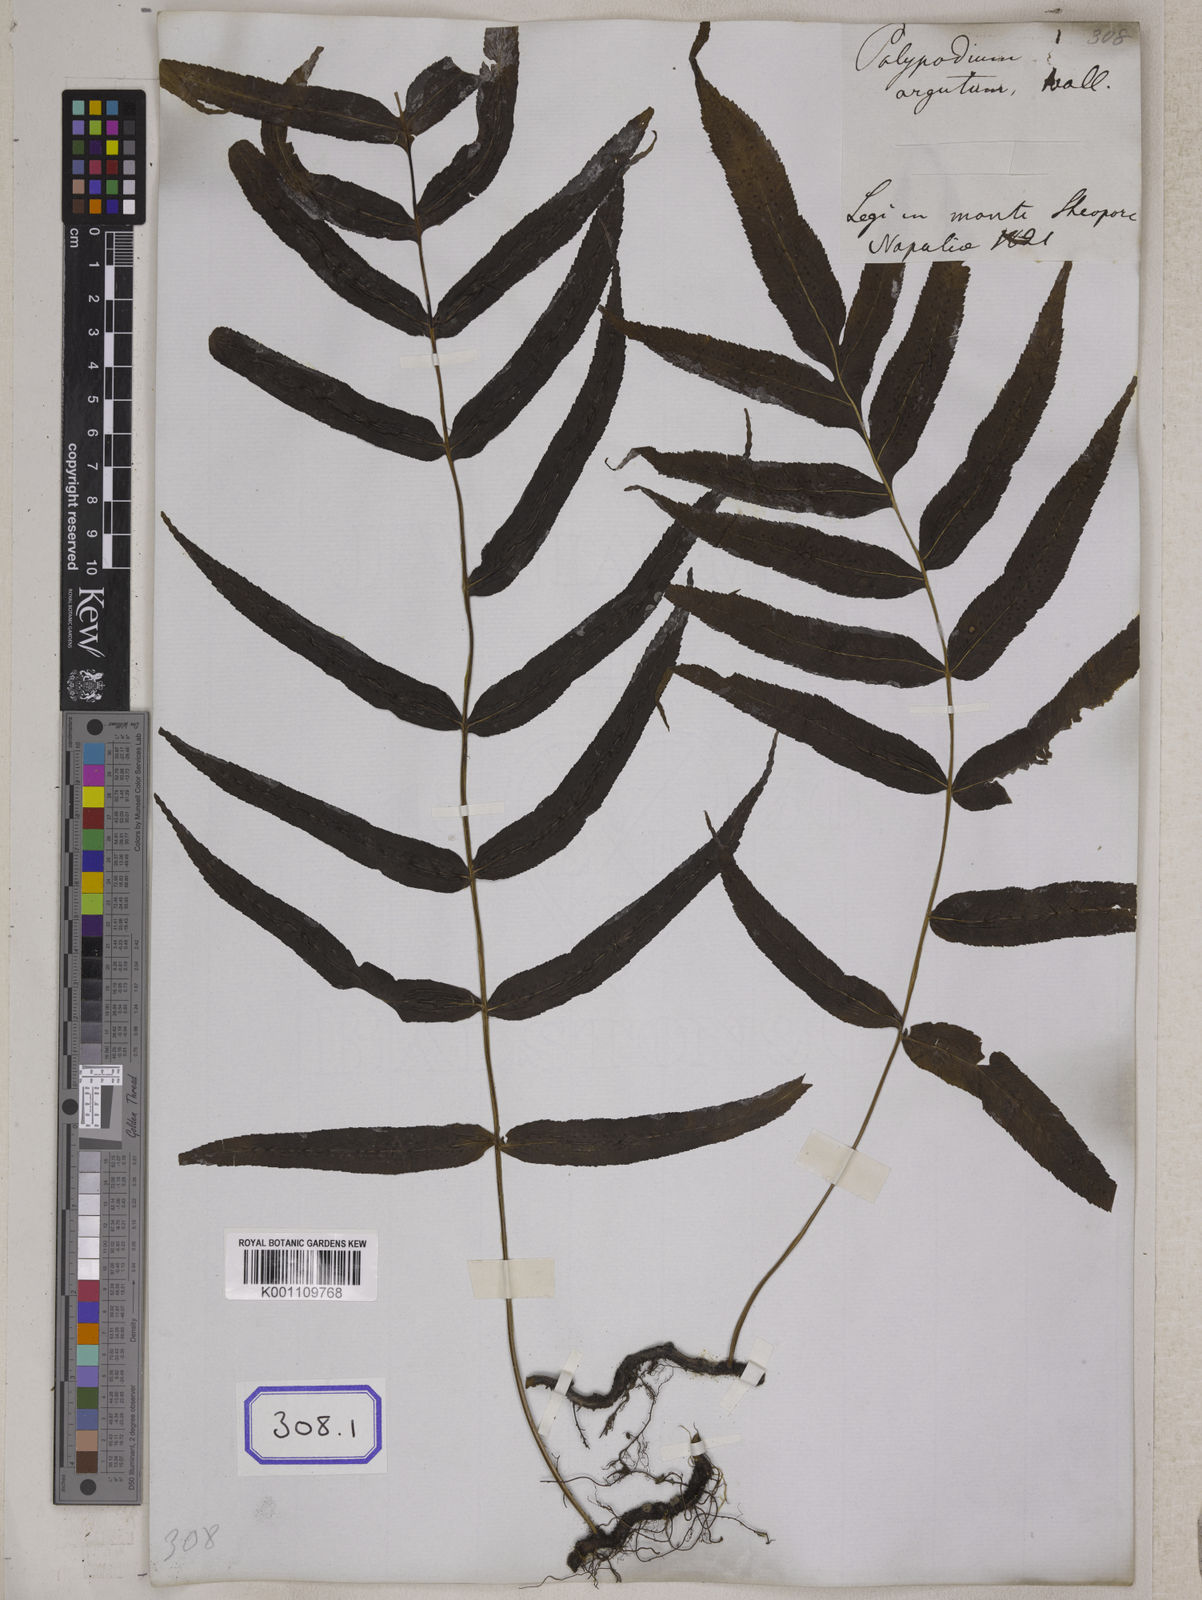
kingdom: Plantae
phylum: Tracheophyta
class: Polypodiopsida
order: Polypodiales
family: Polypodiaceae
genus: Goniophlebium
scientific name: Goniophlebium argutum
